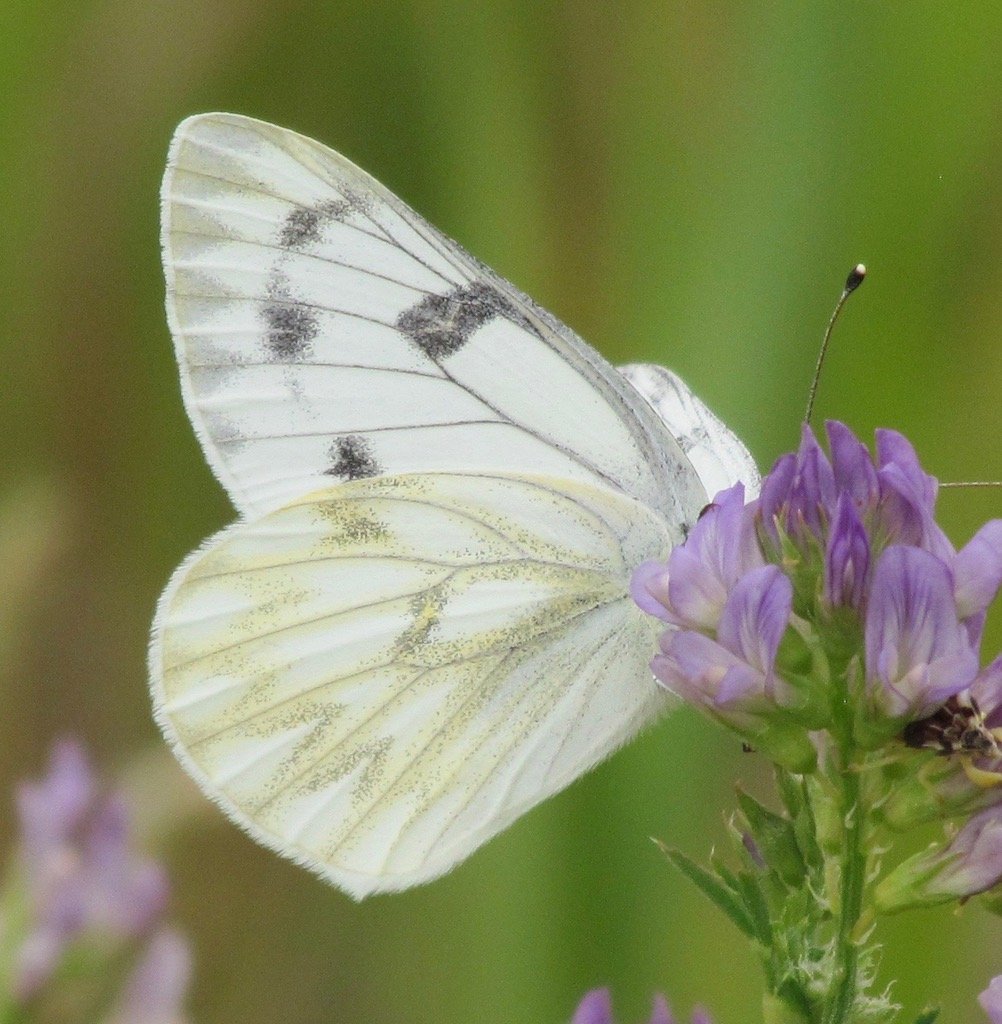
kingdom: Animalia
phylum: Arthropoda
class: Insecta
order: Lepidoptera
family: Pieridae
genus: Pontia
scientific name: Pontia occidentalis
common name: Western White
